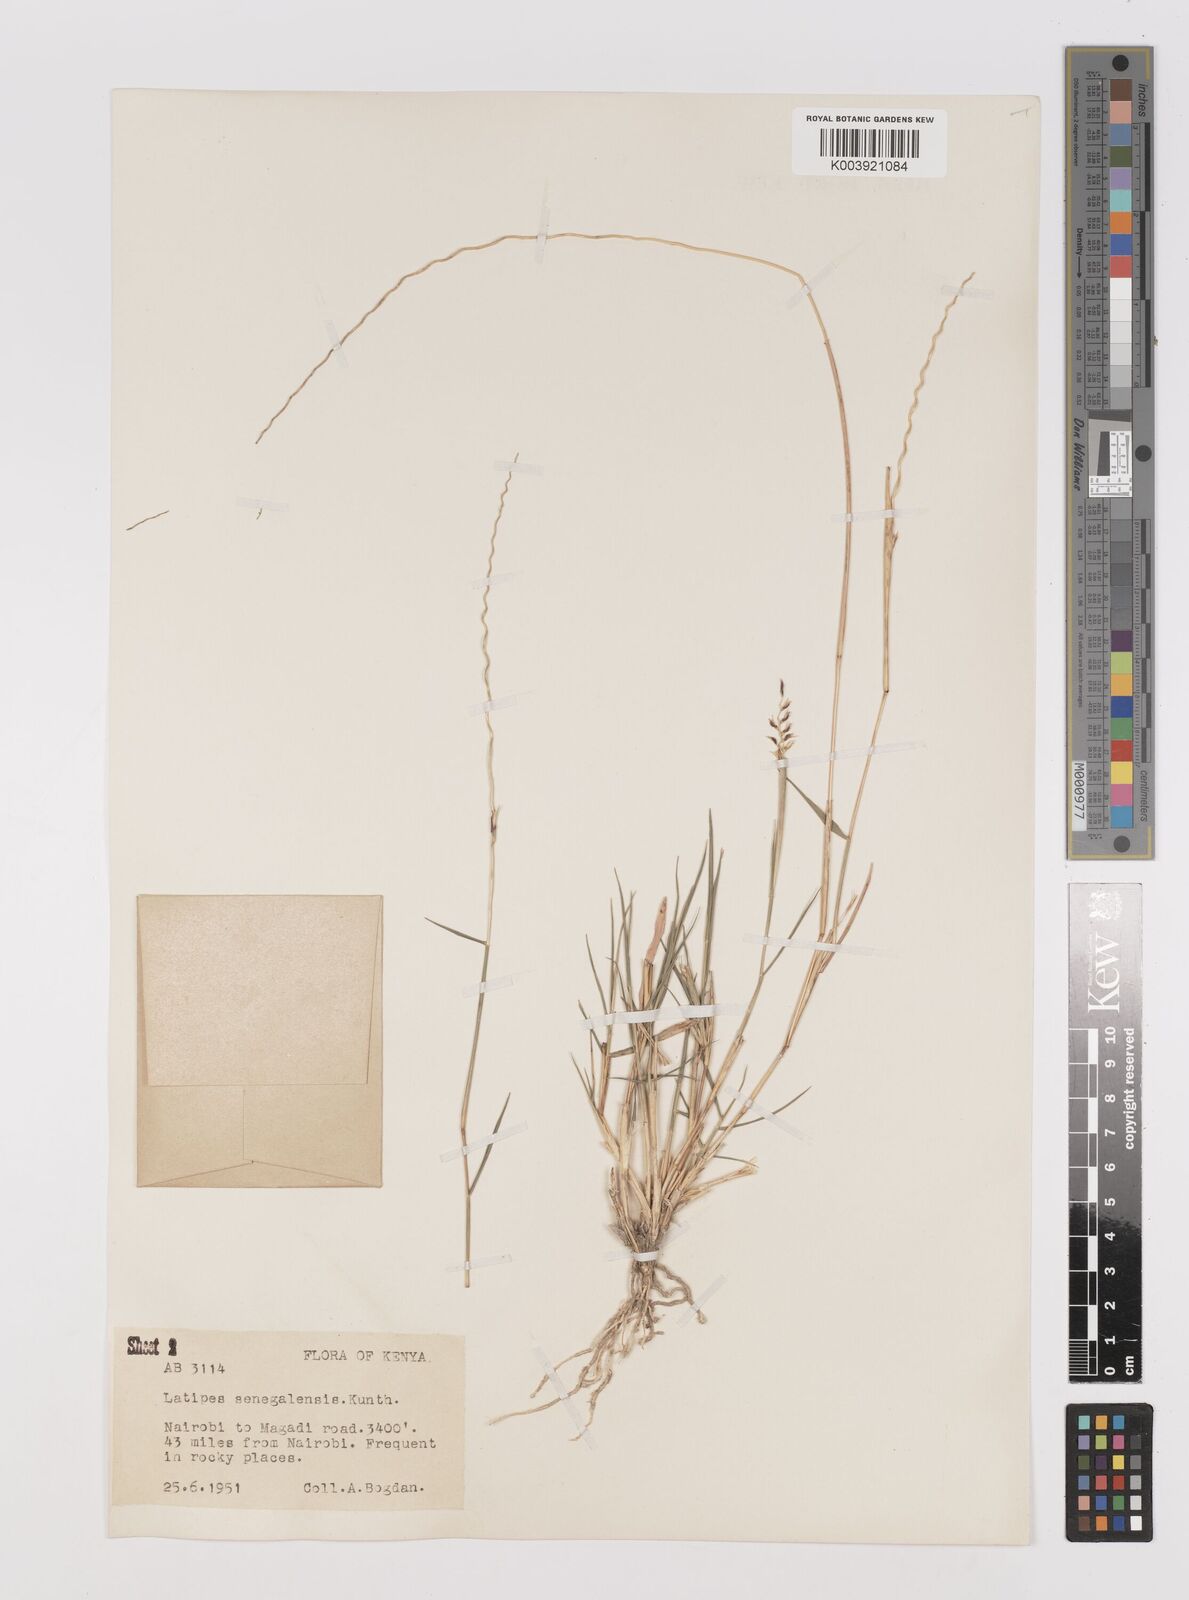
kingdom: Plantae
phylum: Tracheophyta
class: Liliopsida
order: Poales
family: Poaceae
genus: Leptothrium
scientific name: Leptothrium senegalense
